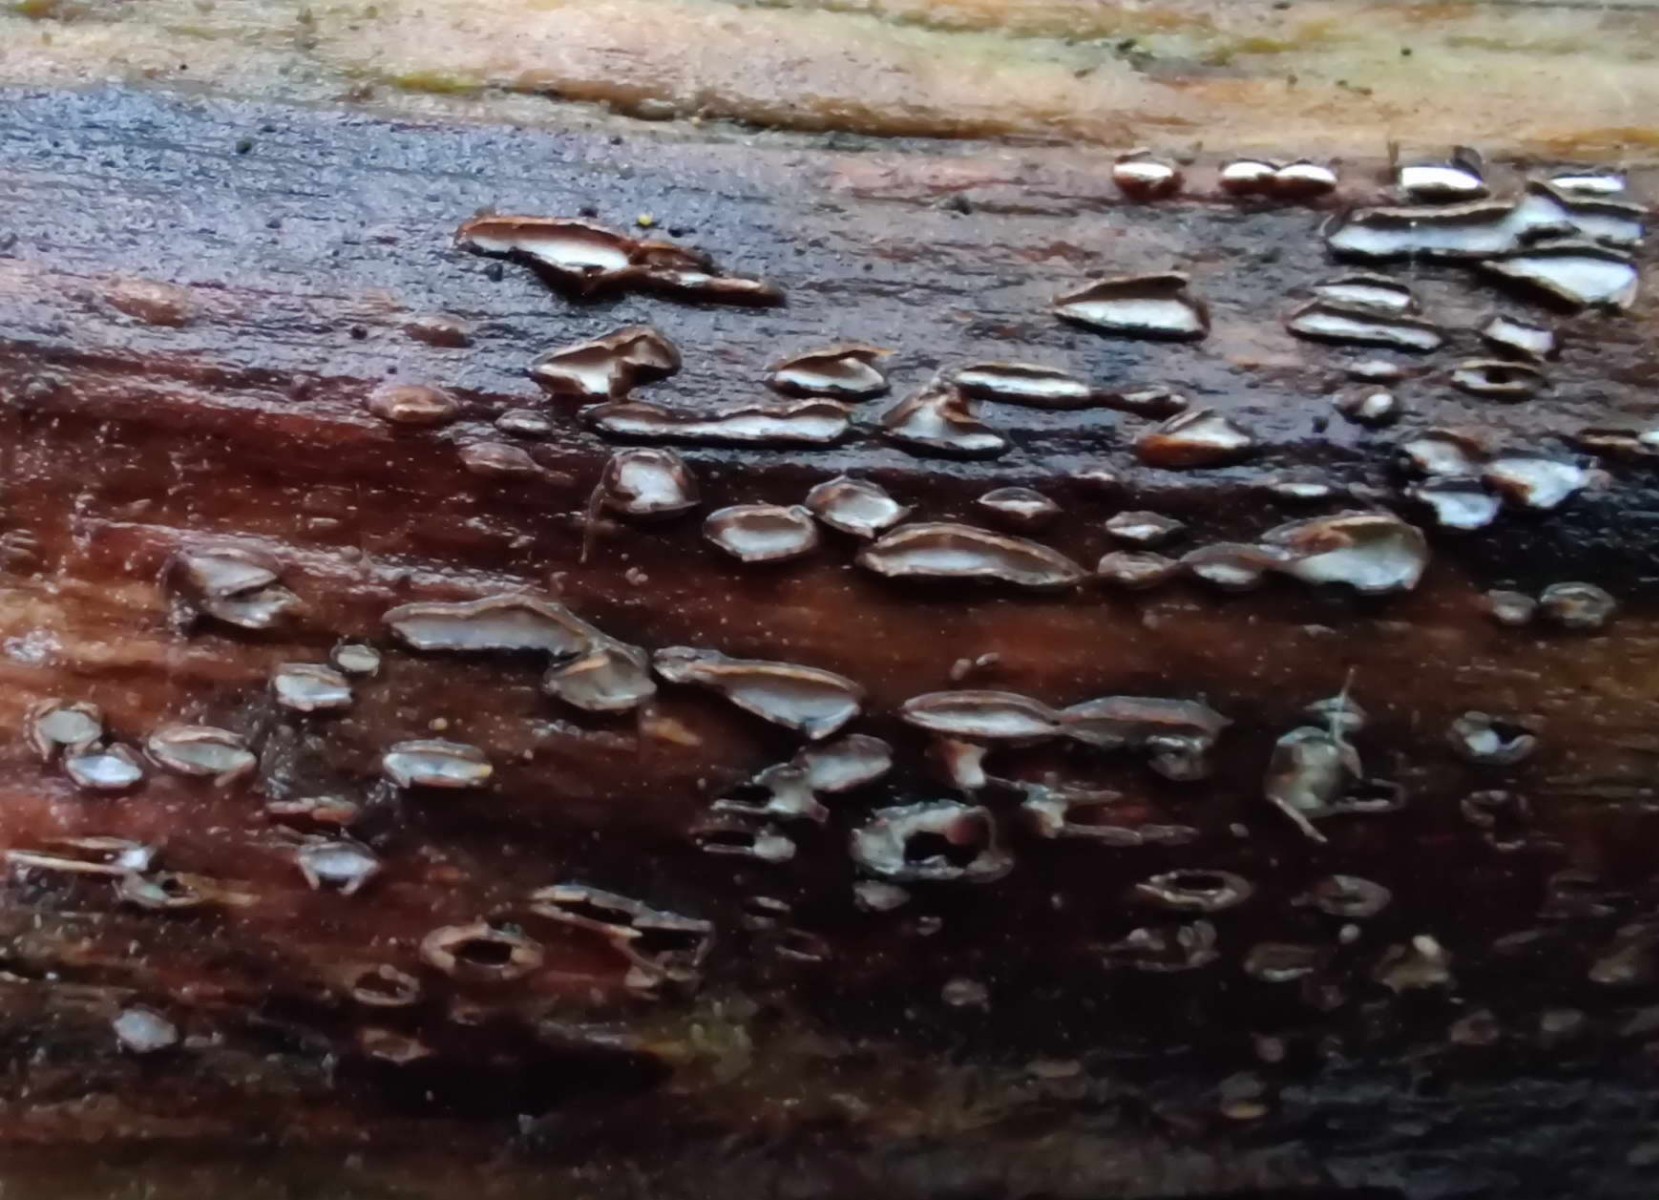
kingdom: Fungi
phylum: Ascomycota
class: Leotiomycetes
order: Chaetomellales
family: Marthamycetaceae
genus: Propolis
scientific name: Propolis farinosa
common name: almindelig vedsprængerskive
